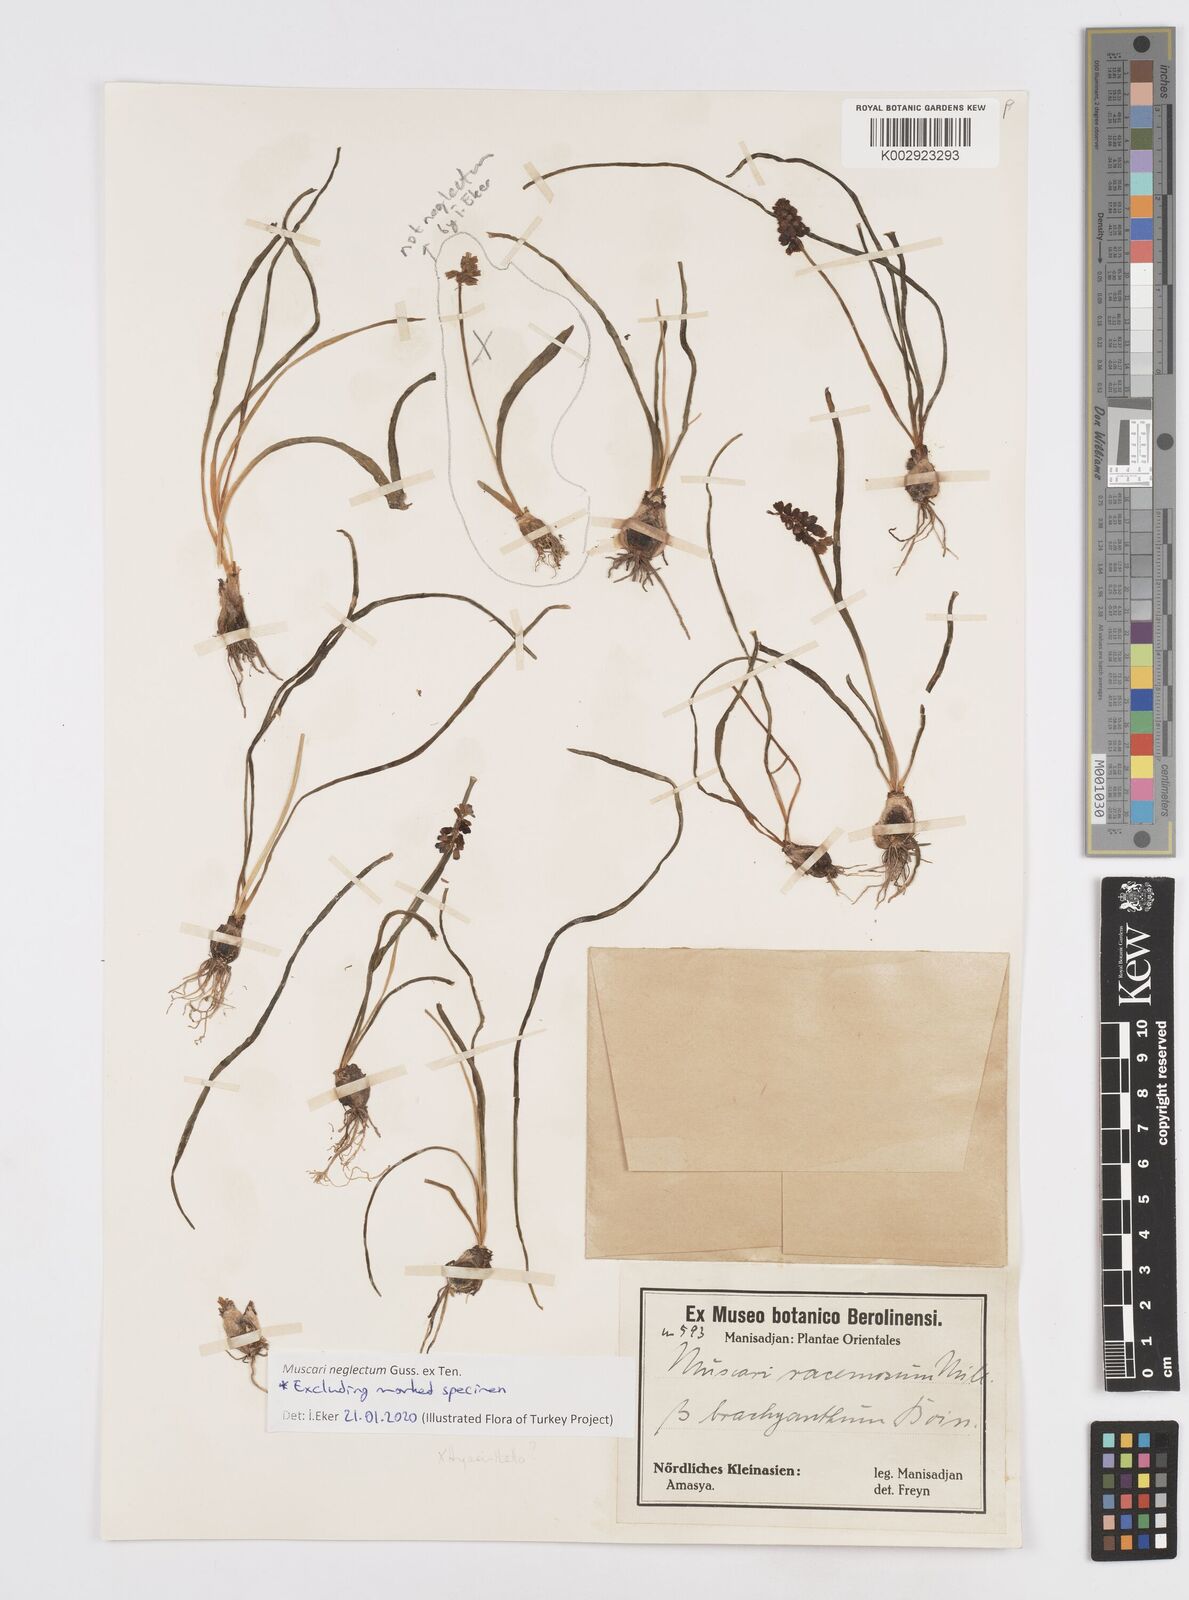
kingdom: Plantae
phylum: Tracheophyta
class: Liliopsida
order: Asparagales
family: Asparagaceae
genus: Muscari
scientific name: Muscari neglectum
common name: Grape-hyacinth
